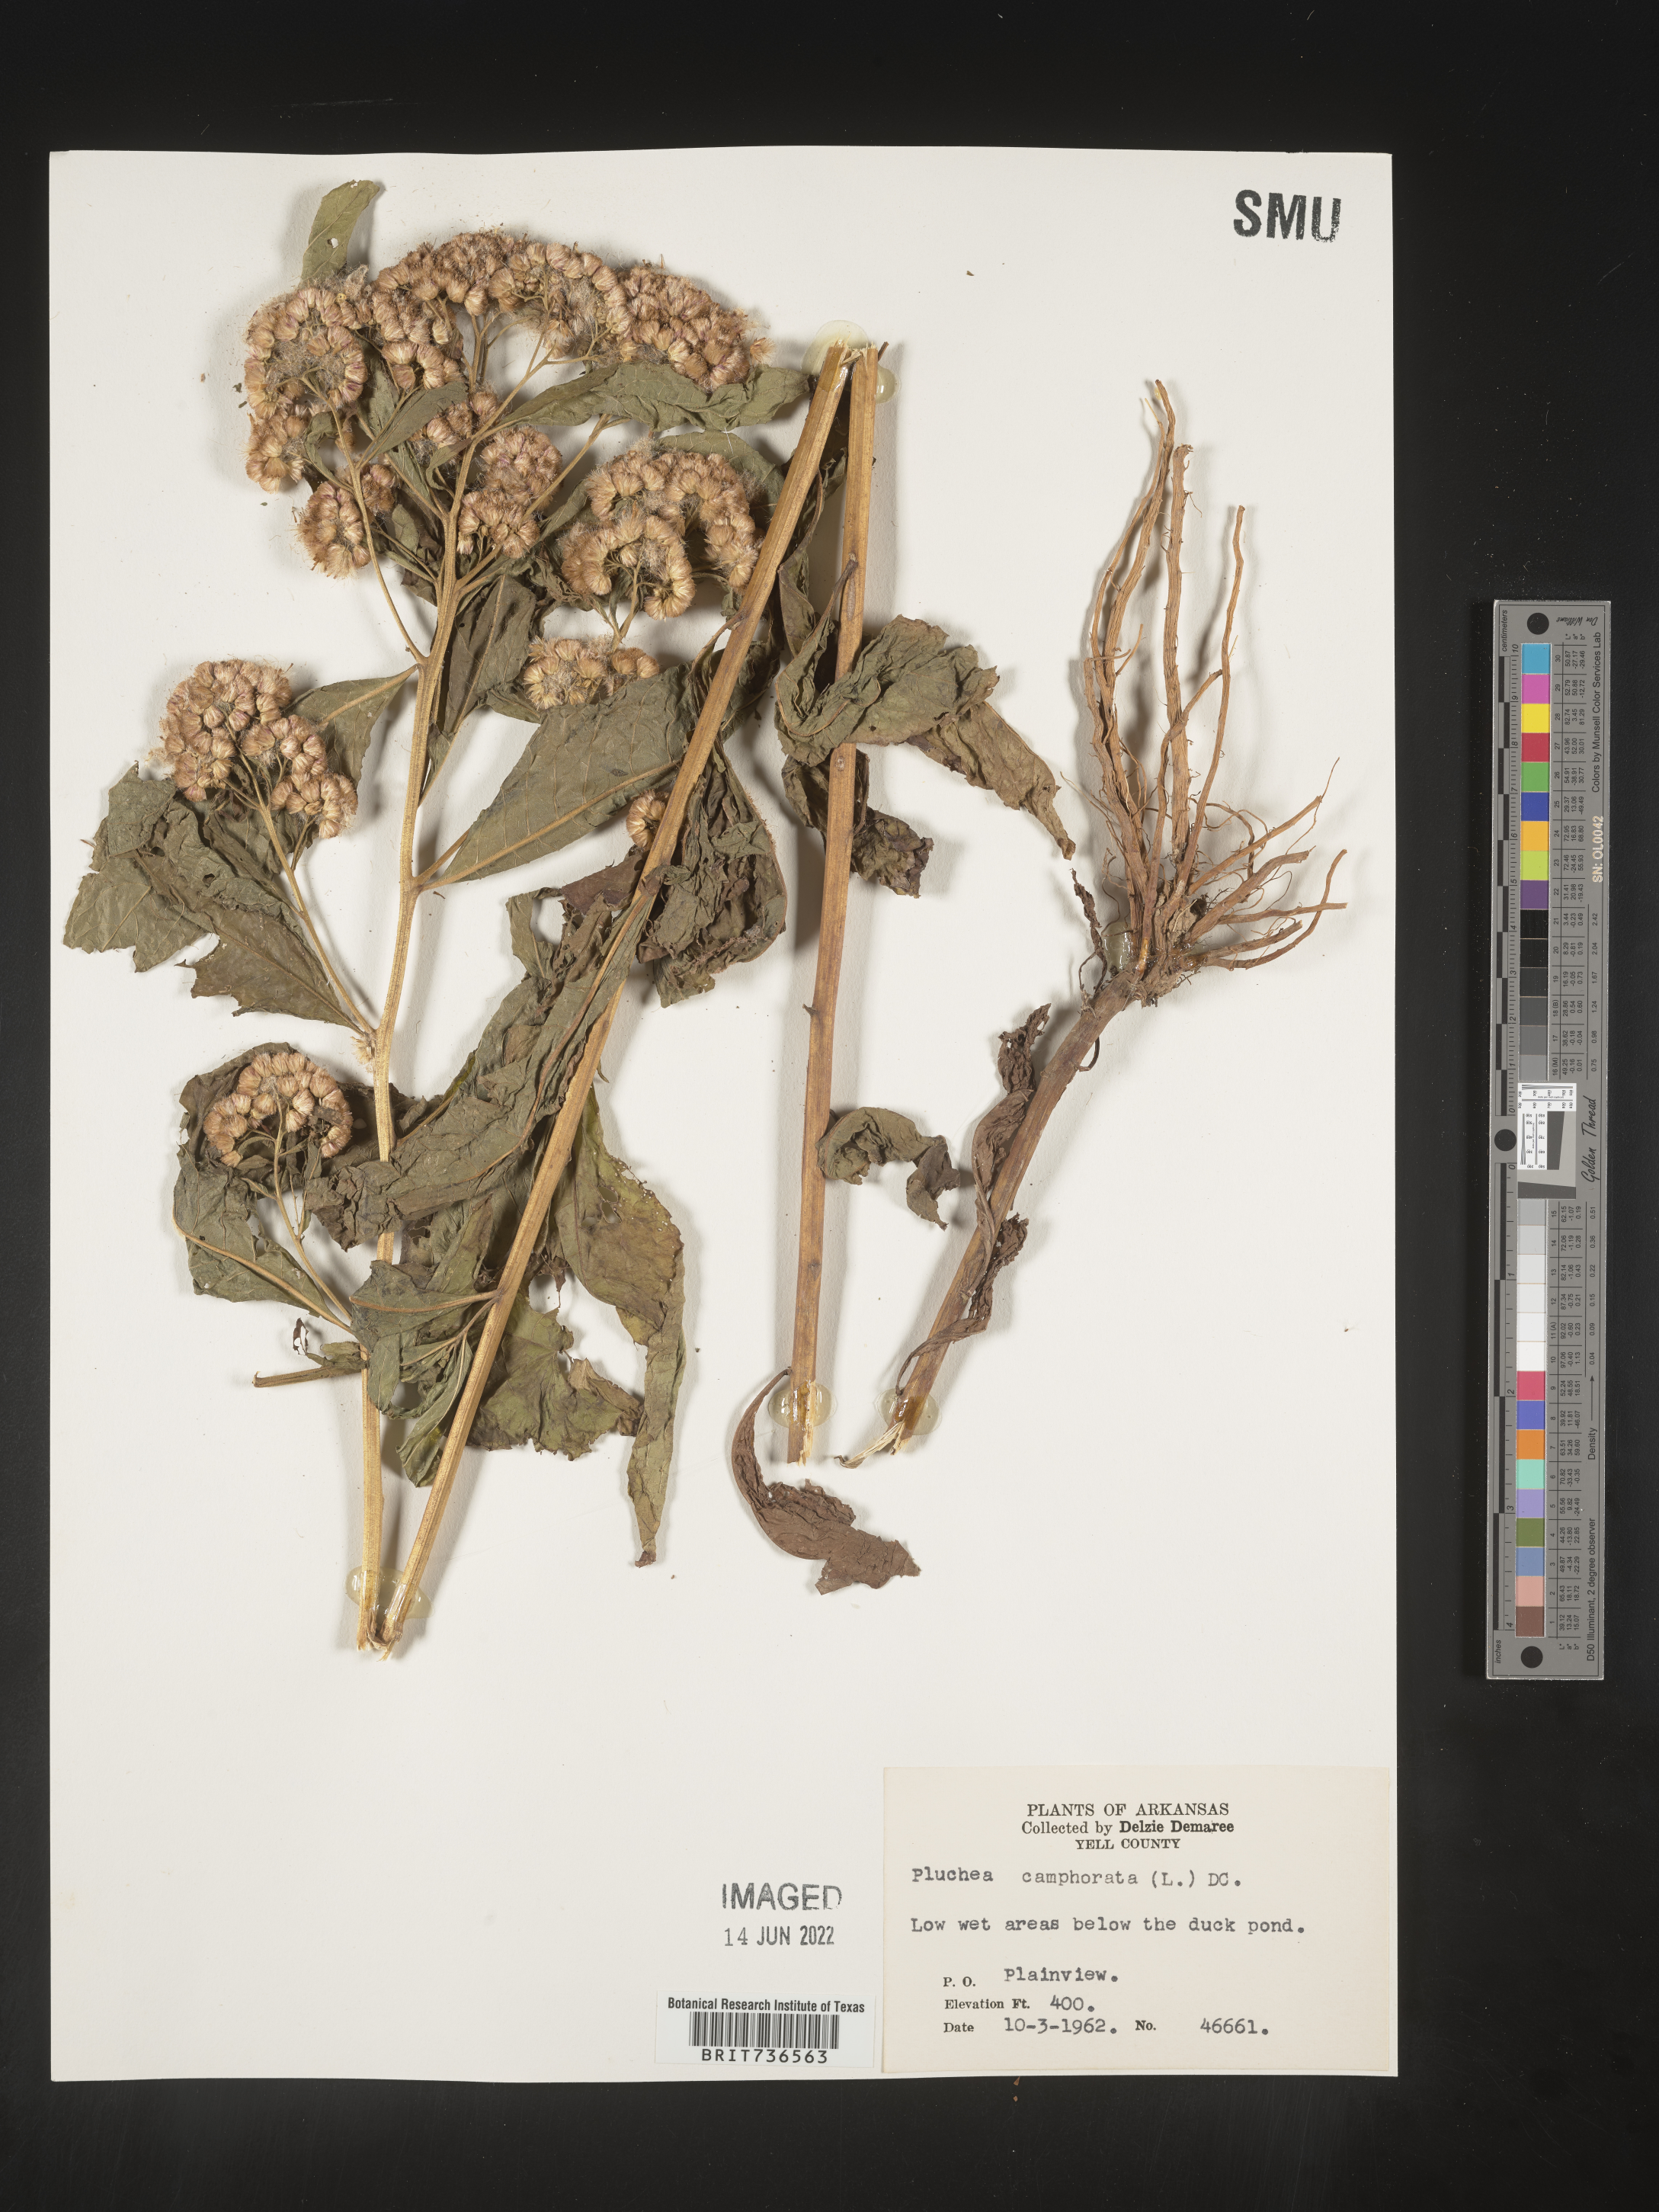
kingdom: Plantae
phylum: Tracheophyta
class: Magnoliopsida
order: Asterales
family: Asteraceae
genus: Pluchea
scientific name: Pluchea camphorata
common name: Camphor pluchea
